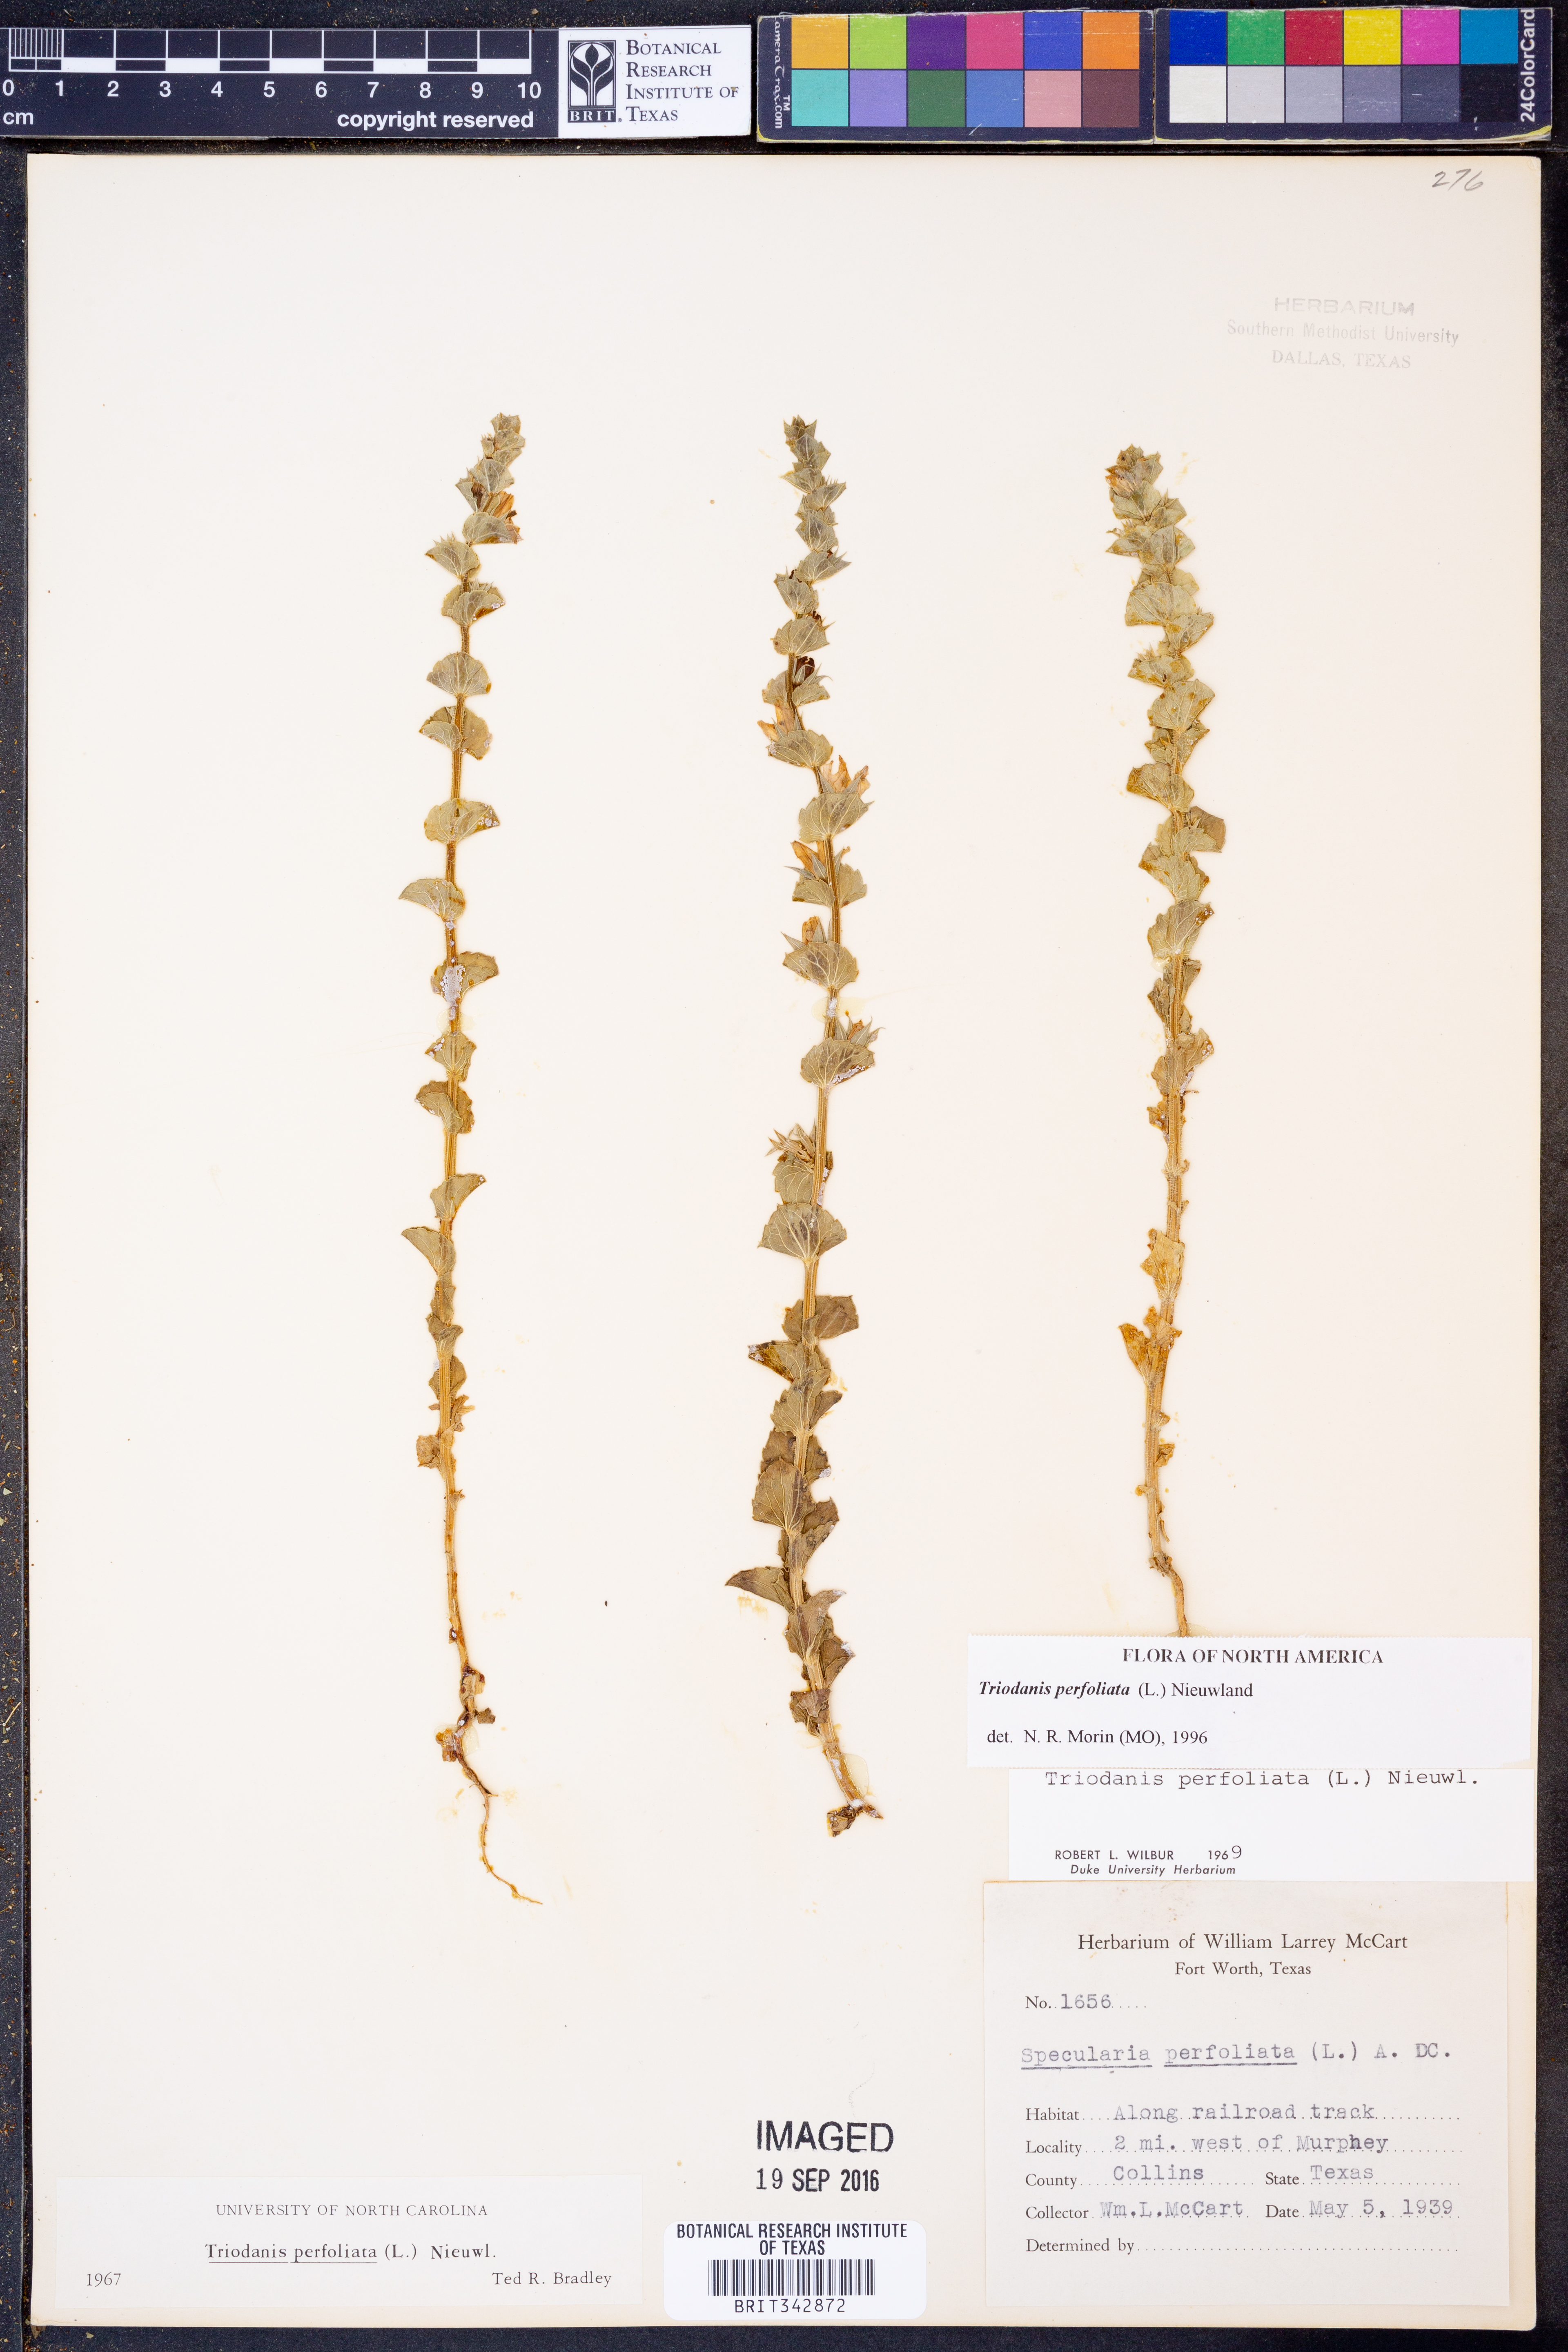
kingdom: Plantae
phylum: Tracheophyta
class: Magnoliopsida
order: Asterales
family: Campanulaceae
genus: Triodanis
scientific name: Triodanis perfoliata
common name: Clasping venus' looking-glass
